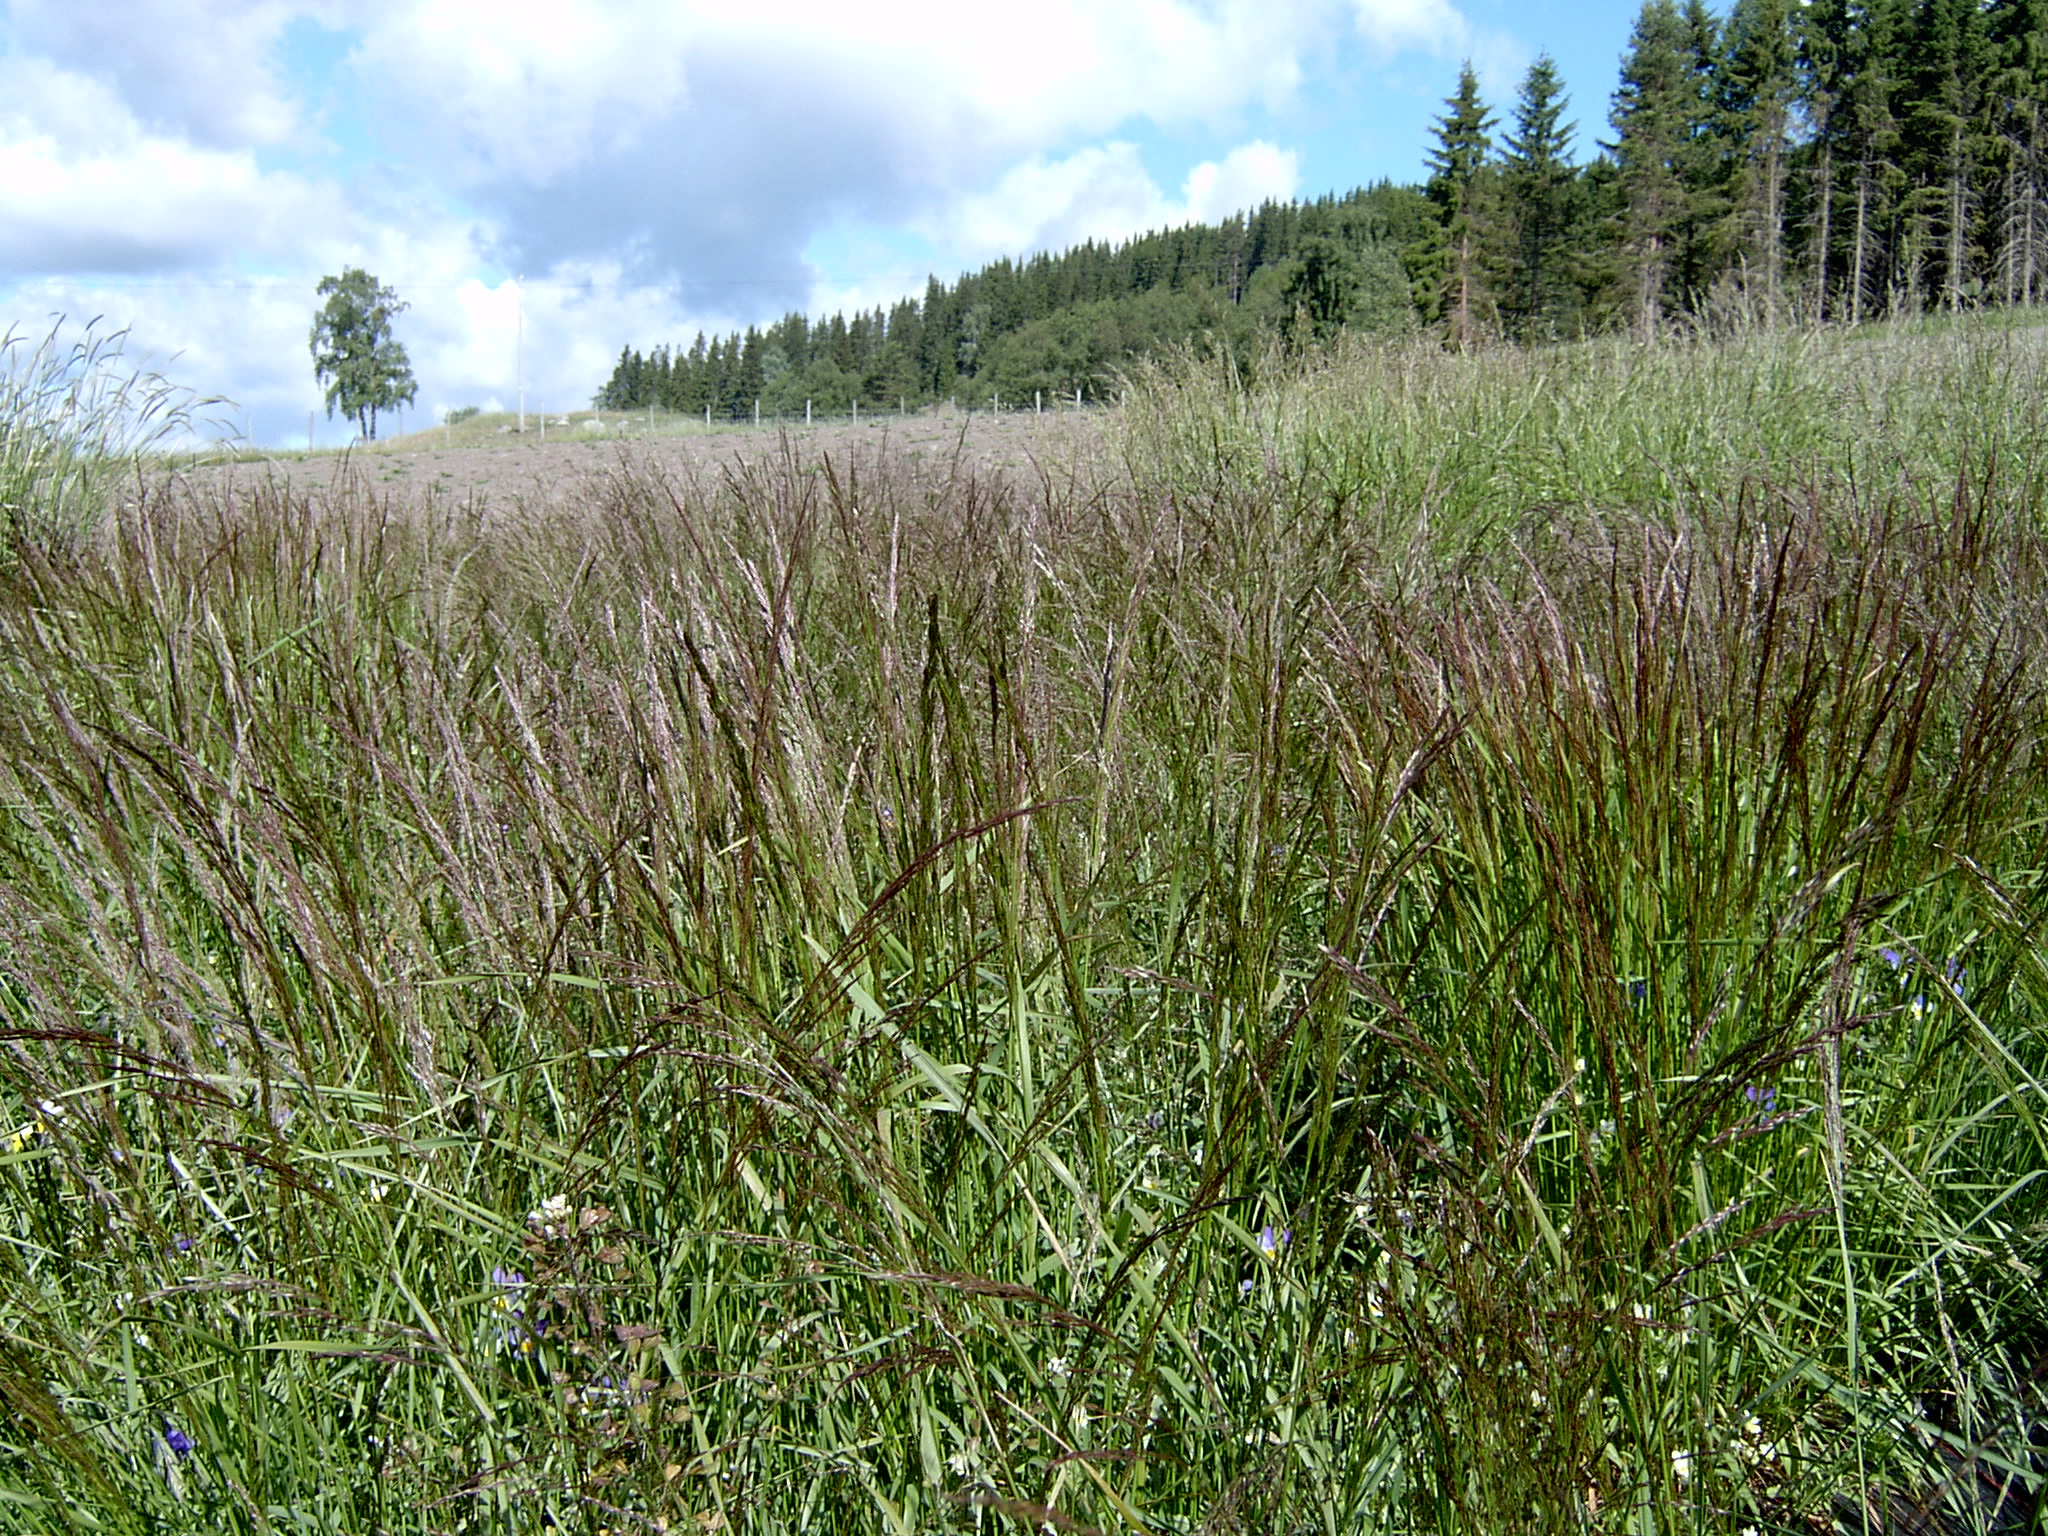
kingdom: Plantae
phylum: Tracheophyta
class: Liliopsida
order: Poales
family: Poaceae
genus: Agrostis
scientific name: Agrostis capillaris
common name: Colonial bentgrass
